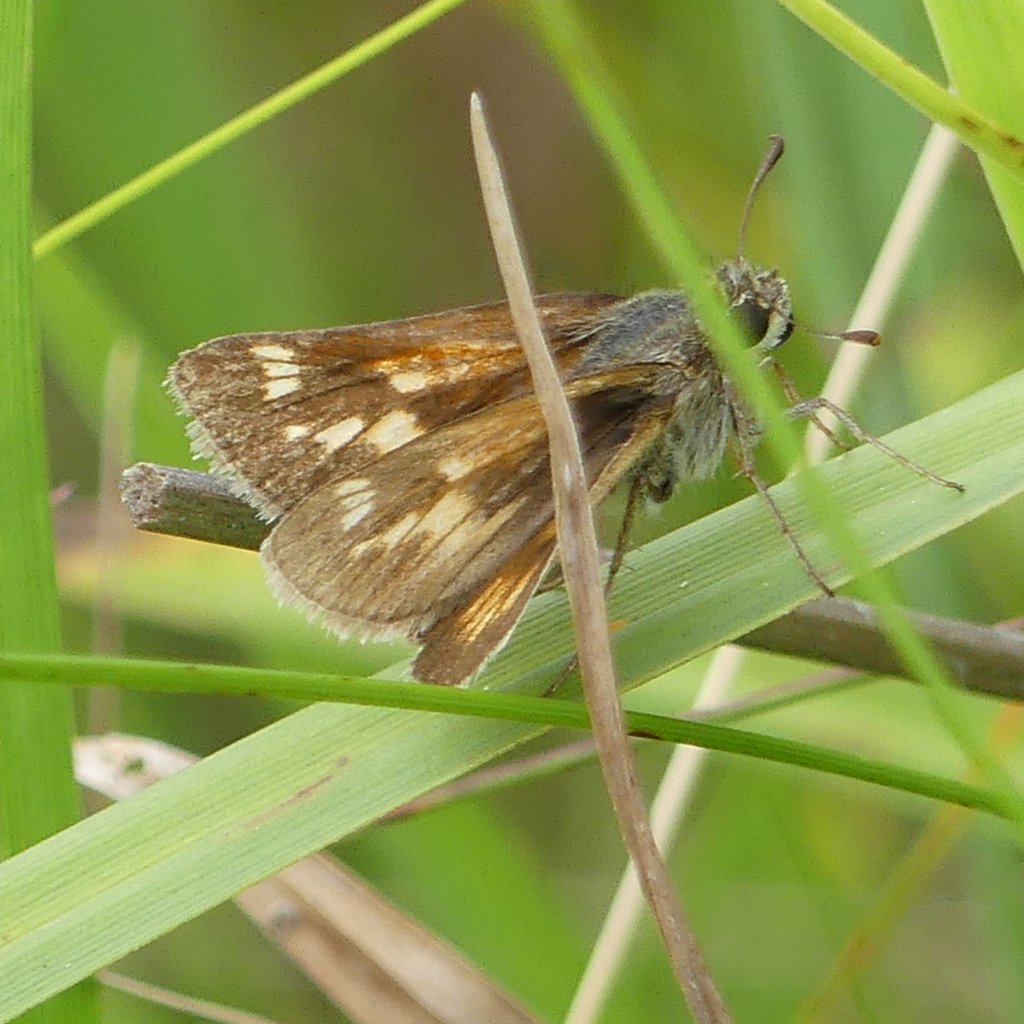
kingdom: Animalia
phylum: Arthropoda
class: Insecta
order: Lepidoptera
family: Hesperiidae
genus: Polites
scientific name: Polites coras
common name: Peck's Skipper
